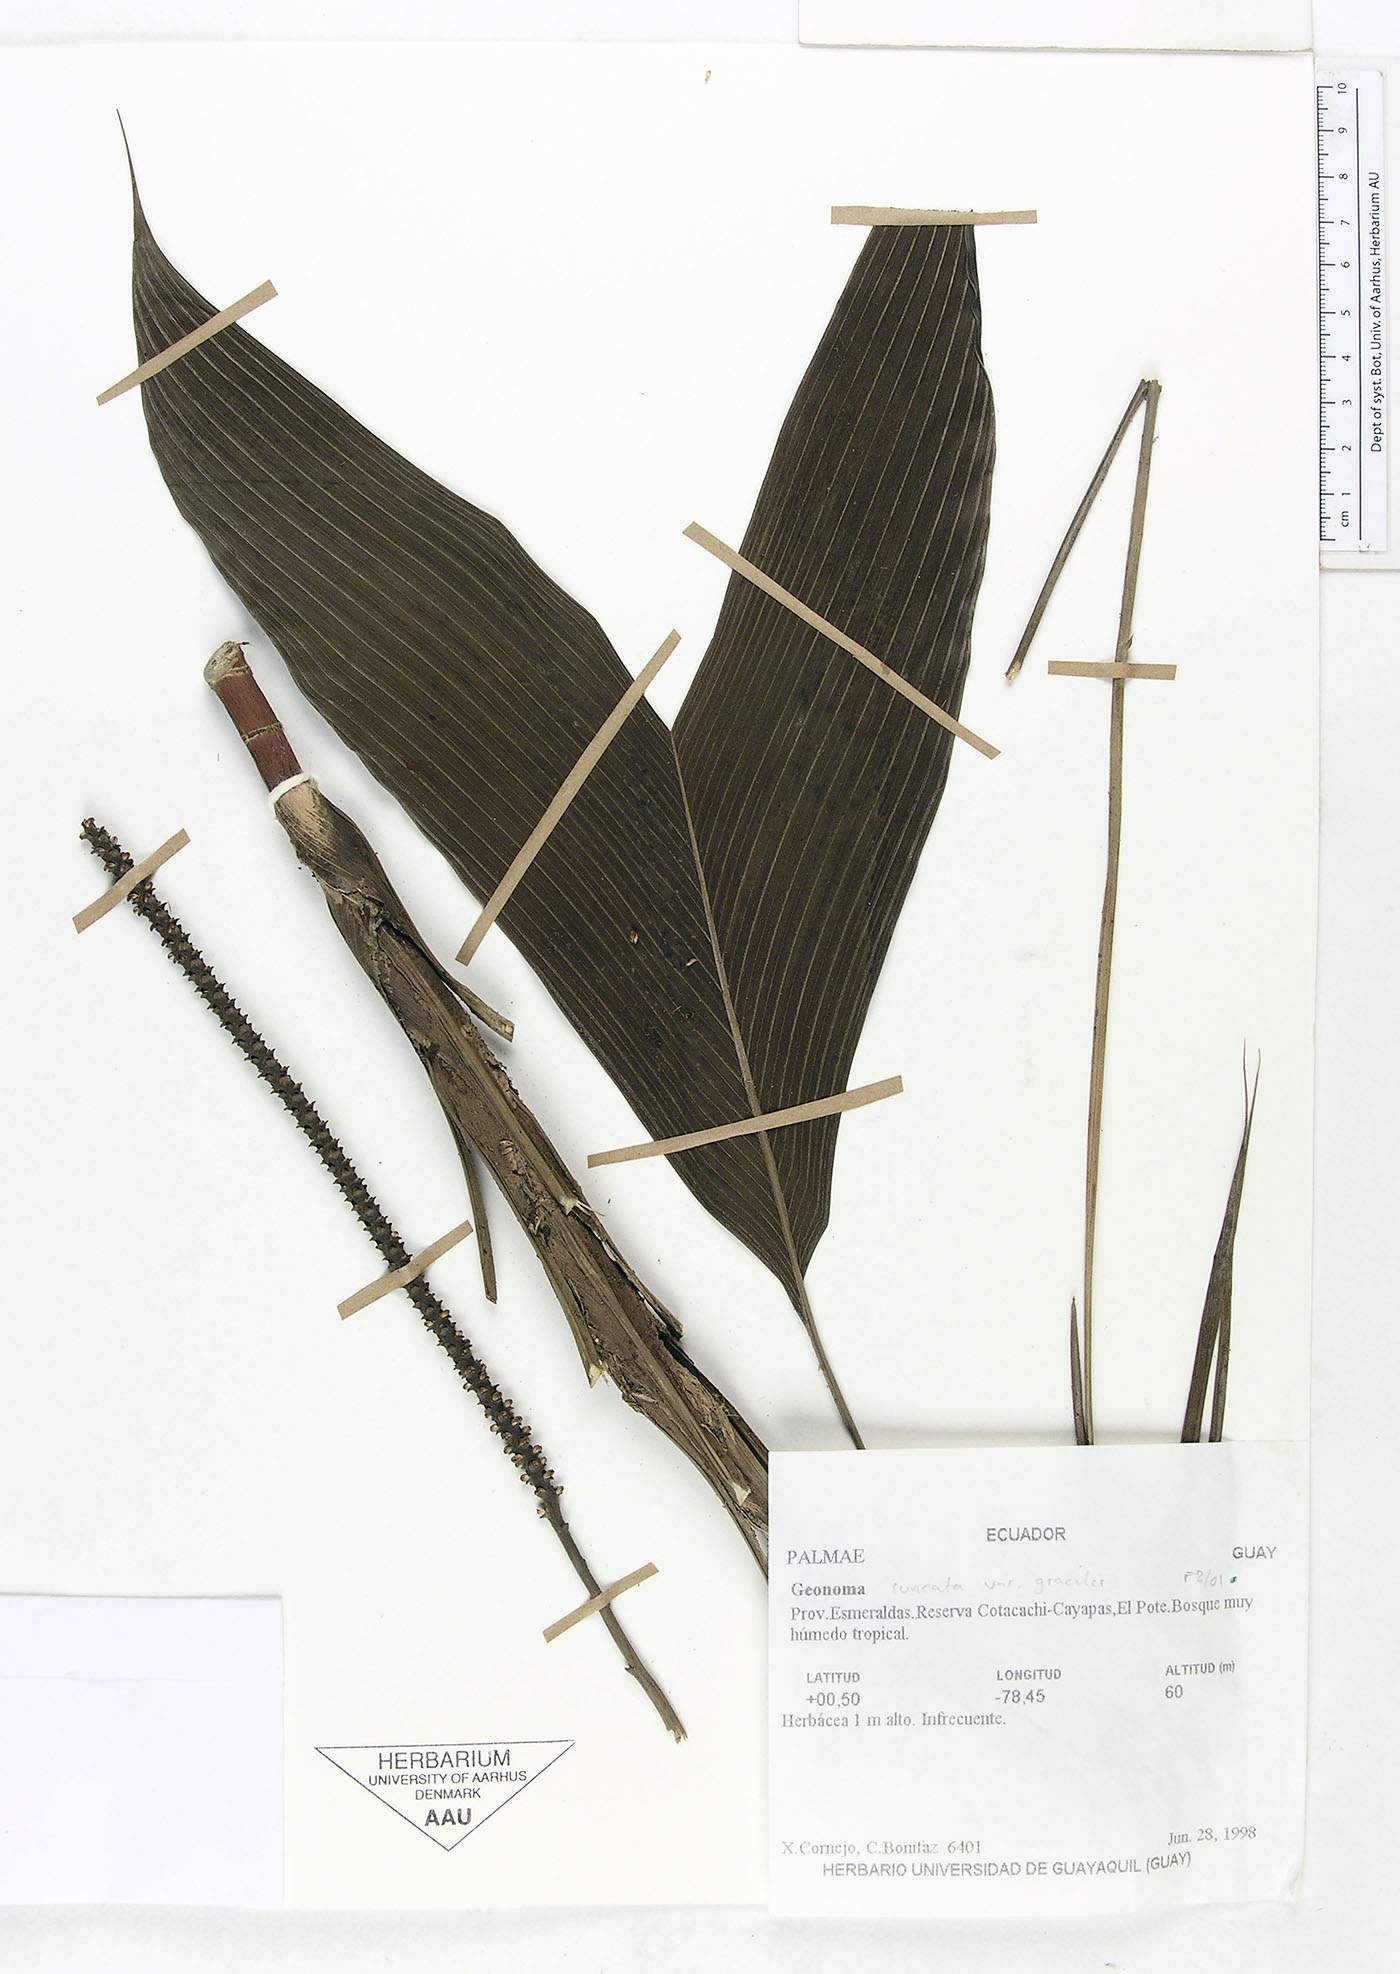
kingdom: Plantae
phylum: Tracheophyta
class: Liliopsida
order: Arecales
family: Arecaceae
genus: Geonoma
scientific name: Geonoma cuneata
